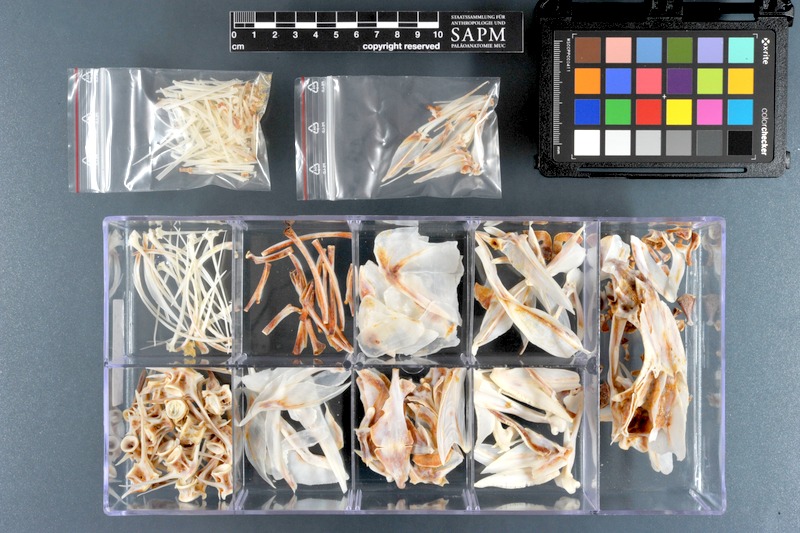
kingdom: Animalia
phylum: Chordata
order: Perciformes
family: Nemipteridae
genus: Nemipterus
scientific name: Nemipterus peronii
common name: Peron's threadfin bream
